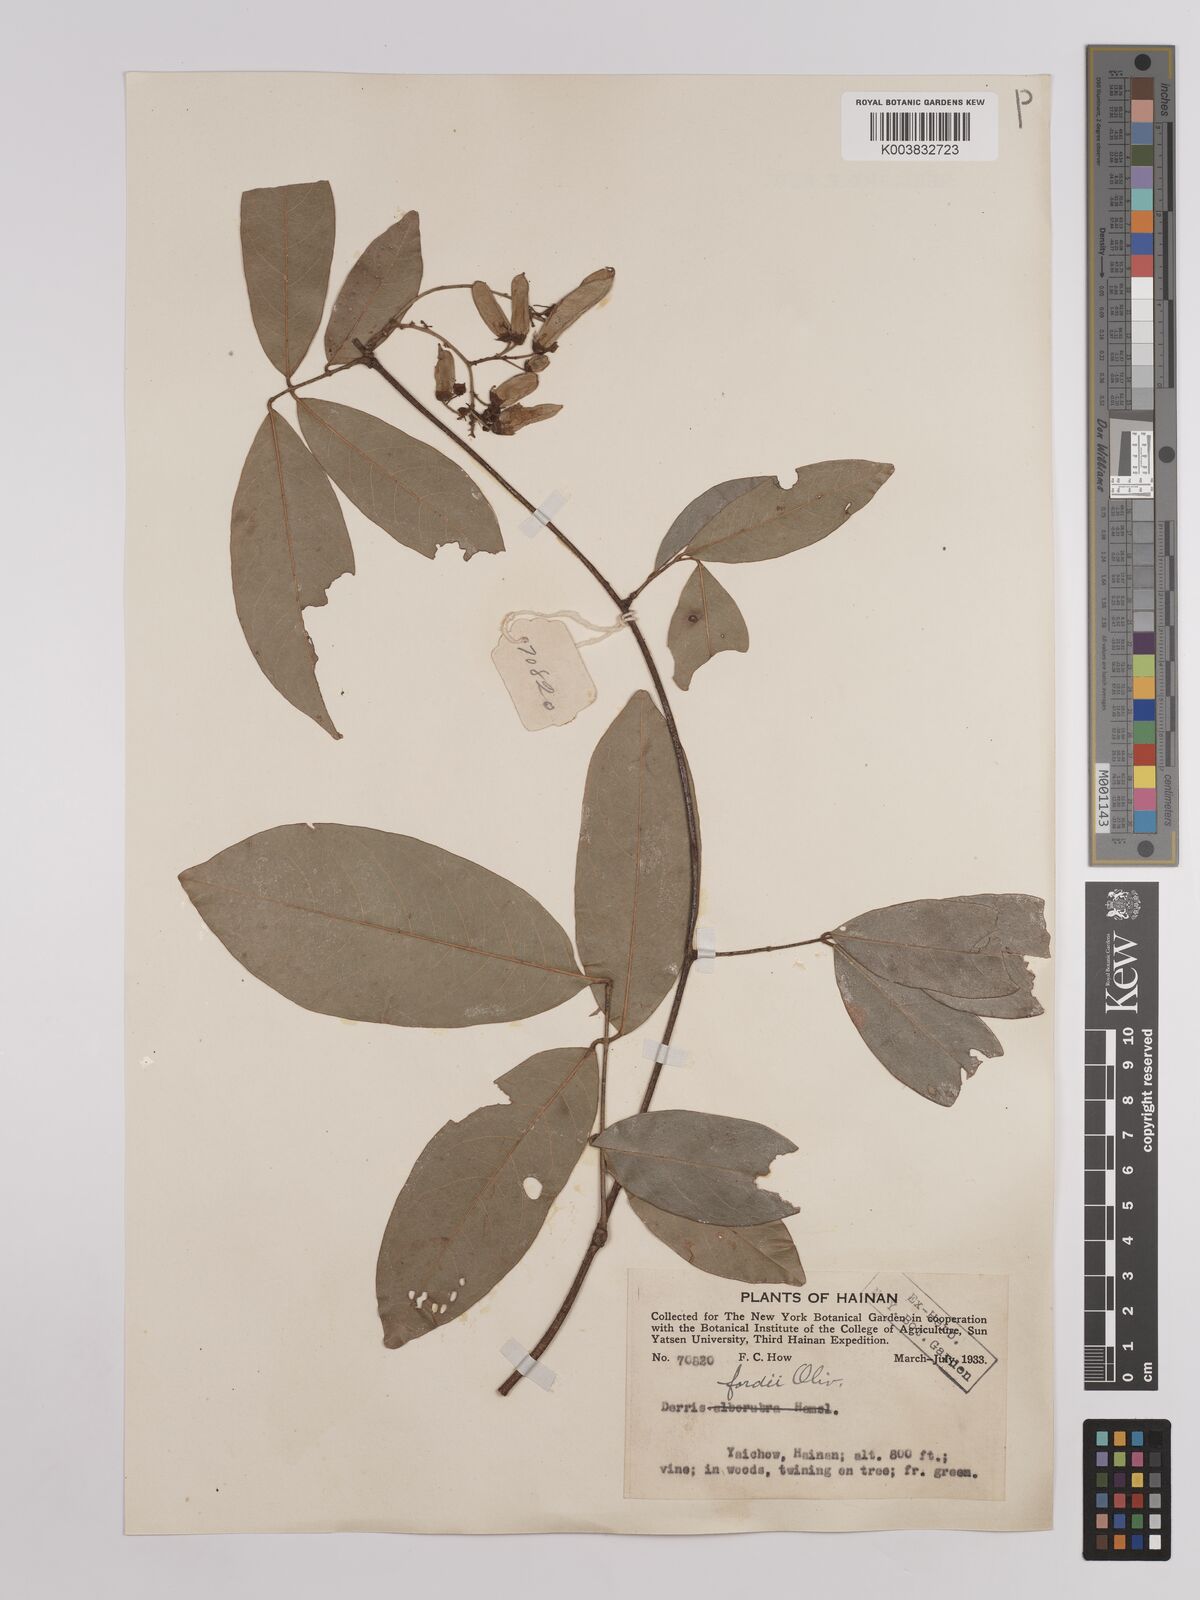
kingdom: Plantae
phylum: Tracheophyta
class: Magnoliopsida
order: Fabales
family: Fabaceae
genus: Derris
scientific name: Derris fordii
